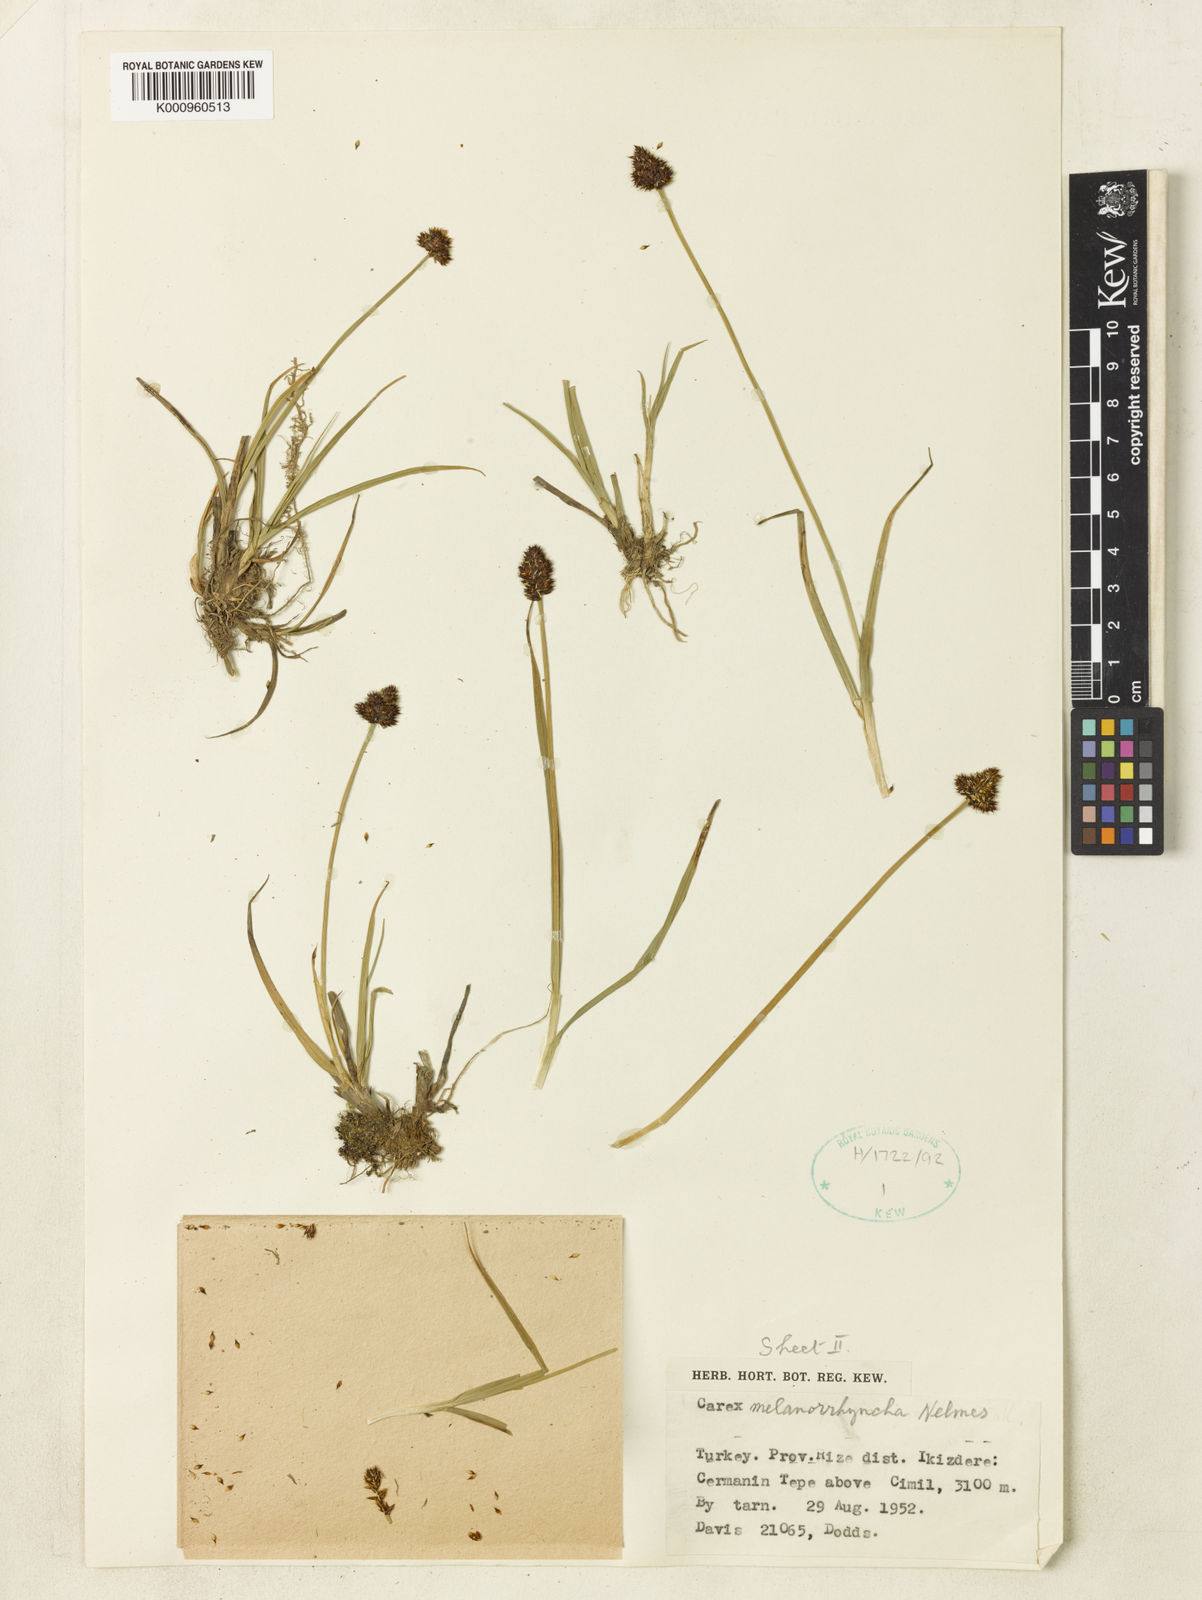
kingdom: Plantae
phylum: Tracheophyta
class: Liliopsida
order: Poales
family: Cyperaceae
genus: Carex
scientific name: Carex melanorrhyncha
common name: Astragal radde
